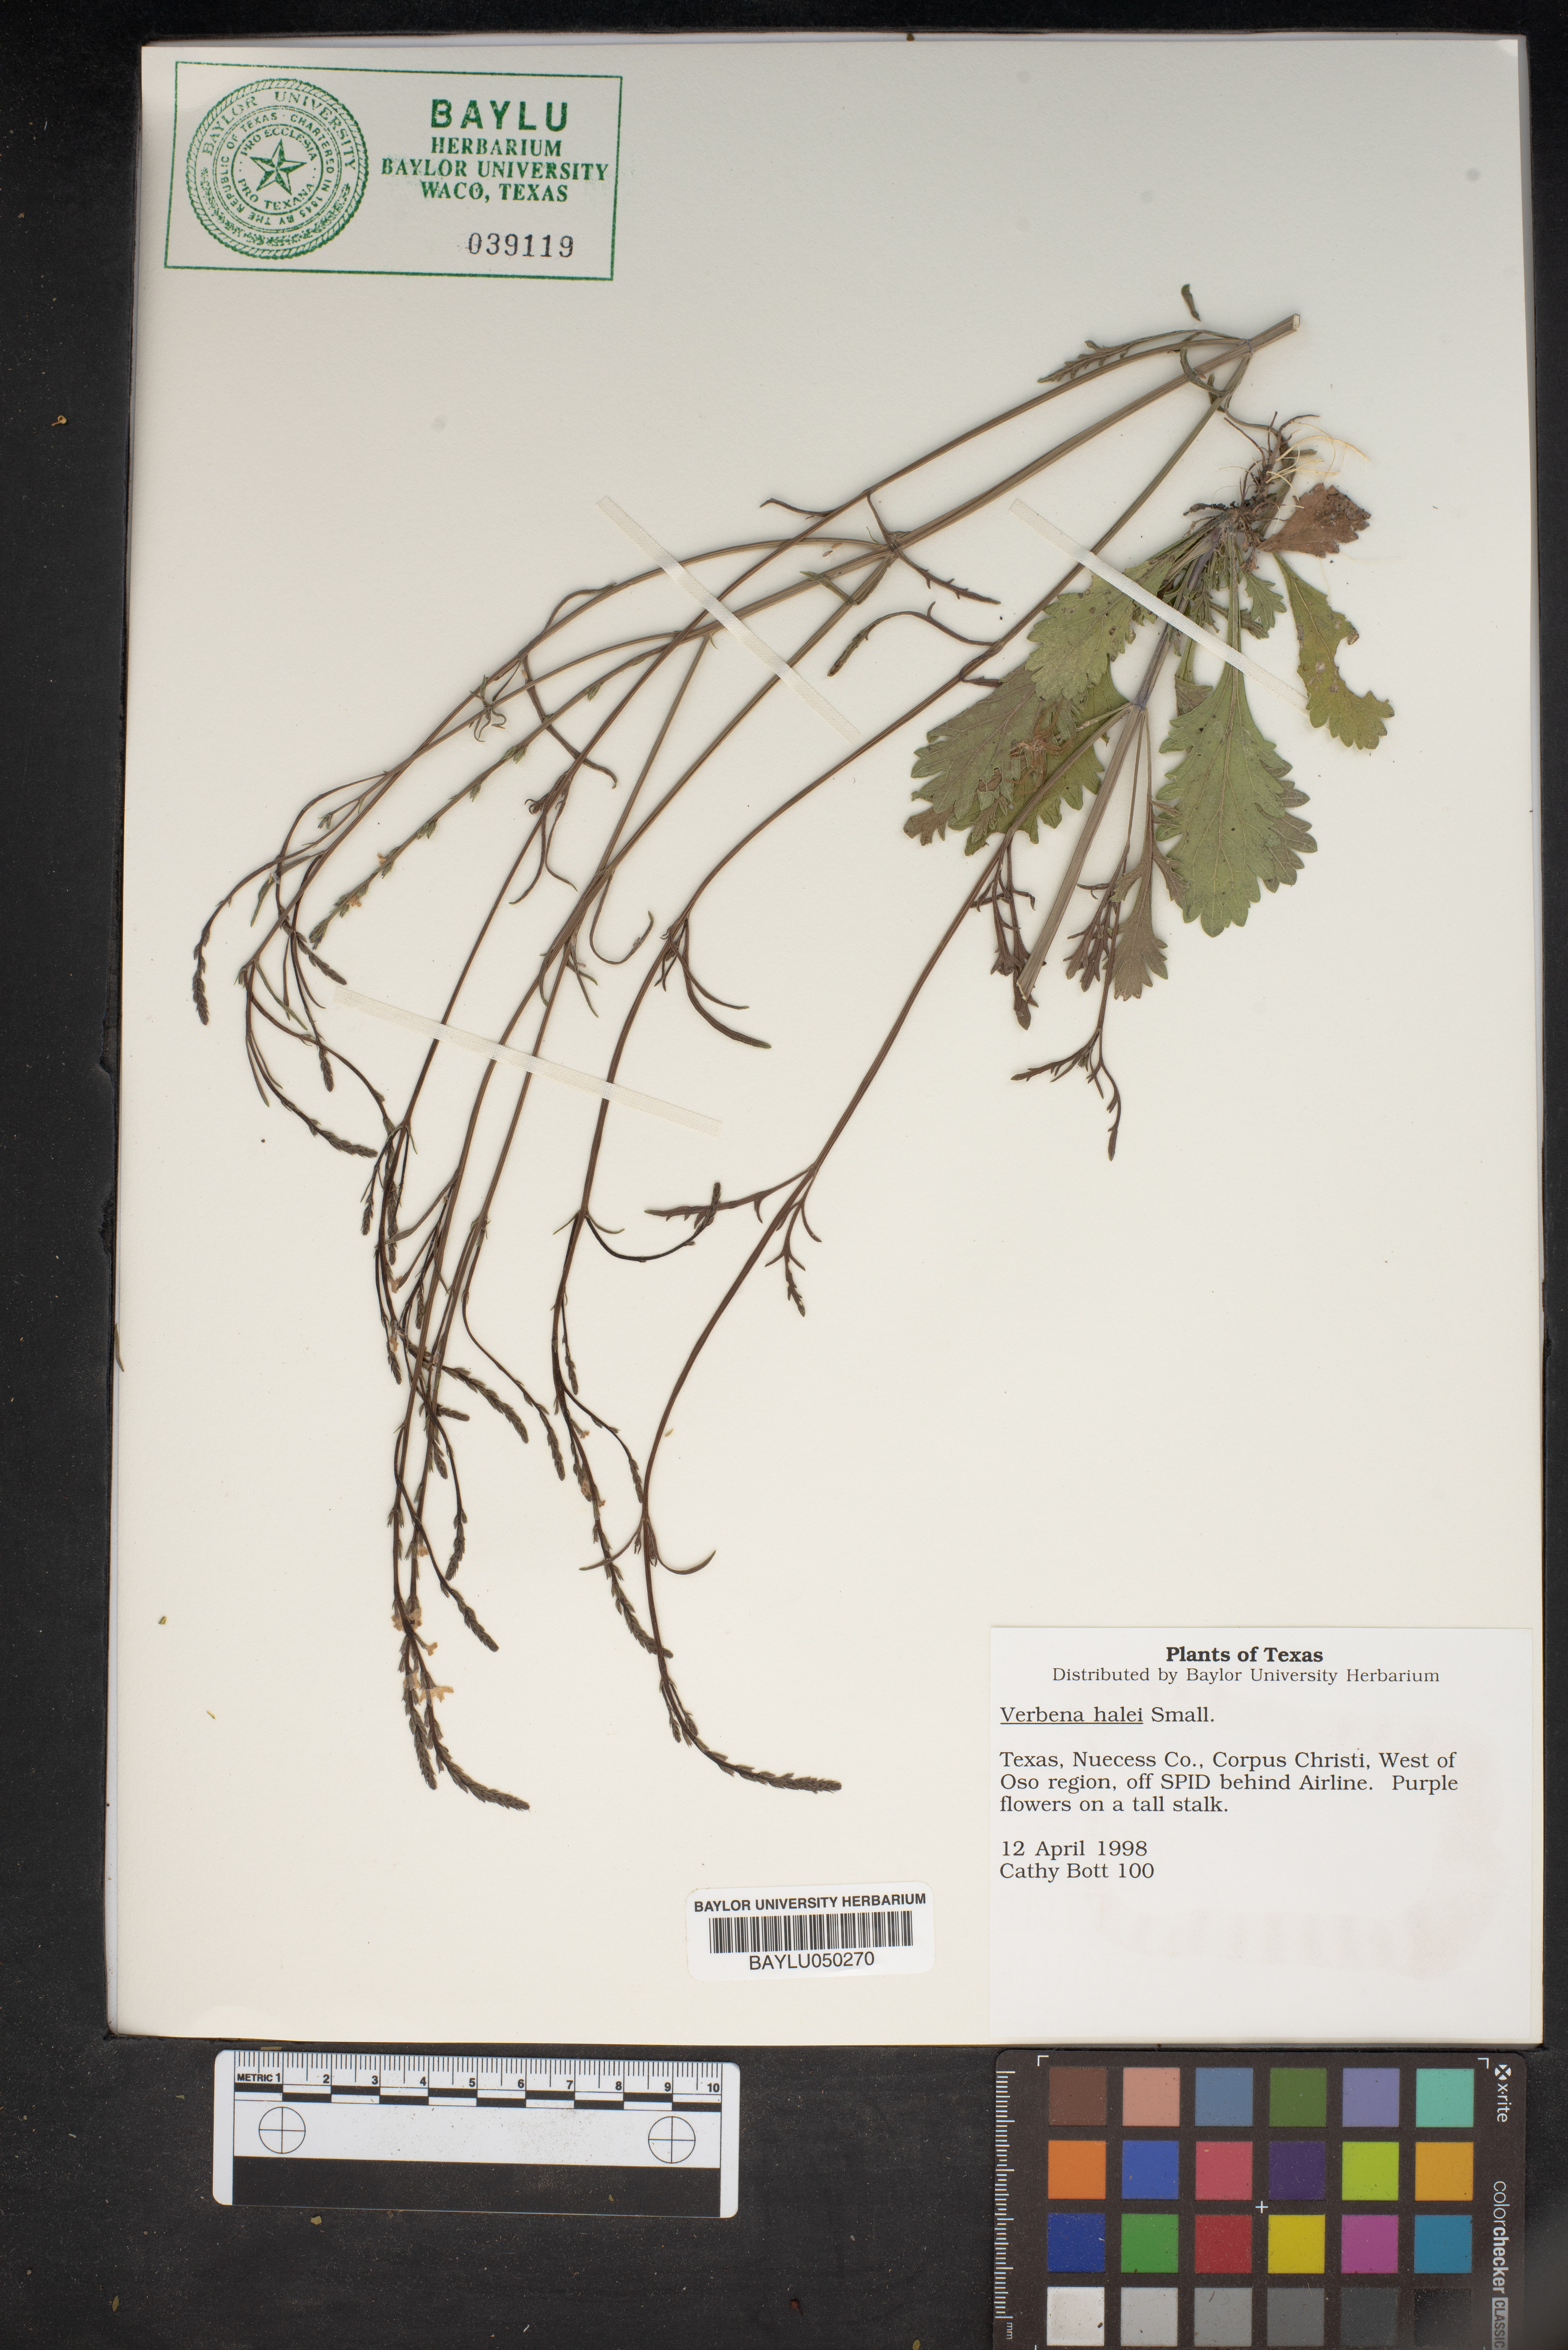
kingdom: Plantae
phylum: Tracheophyta
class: Magnoliopsida
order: Lamiales
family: Verbenaceae
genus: Verbena
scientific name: Verbena halei
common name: Texas vervain
